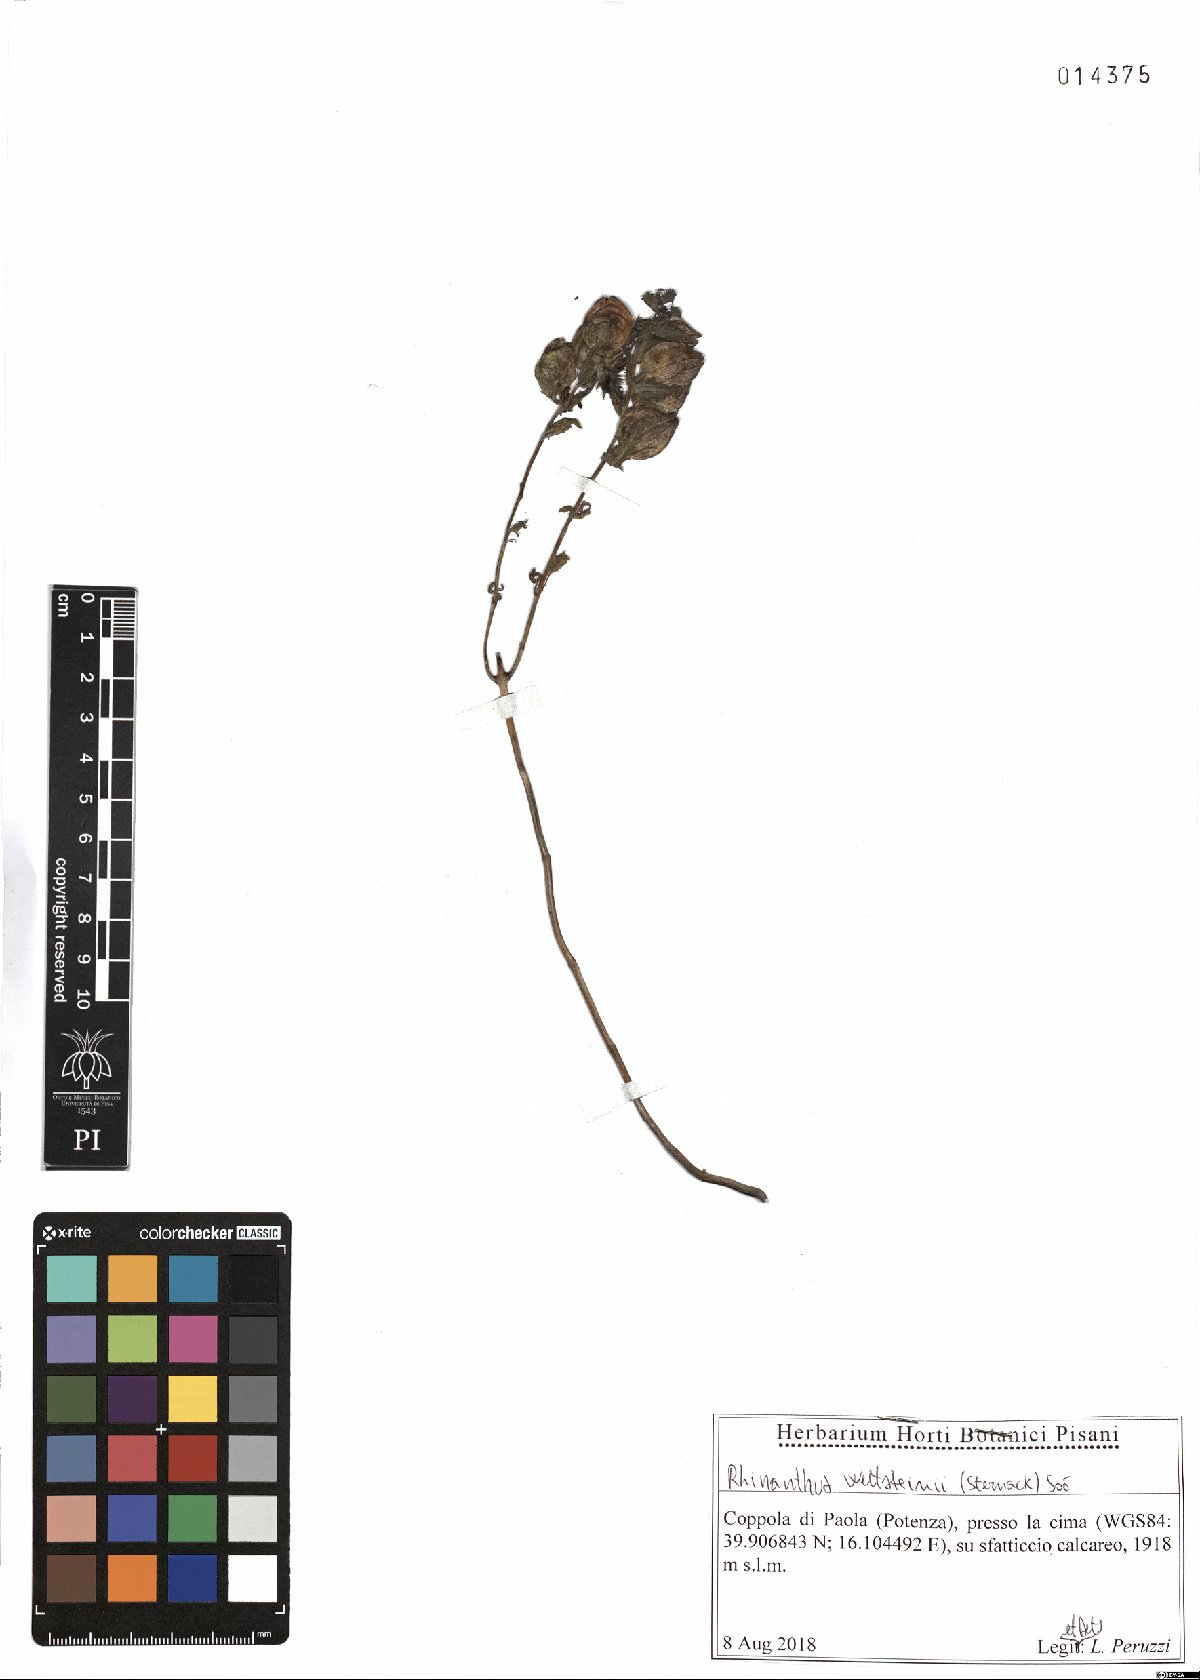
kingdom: Plantae
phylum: Tracheophyta
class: Magnoliopsida
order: Lamiales
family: Orobanchaceae
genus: Rhinanthus
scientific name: Rhinanthus wettsteinii
